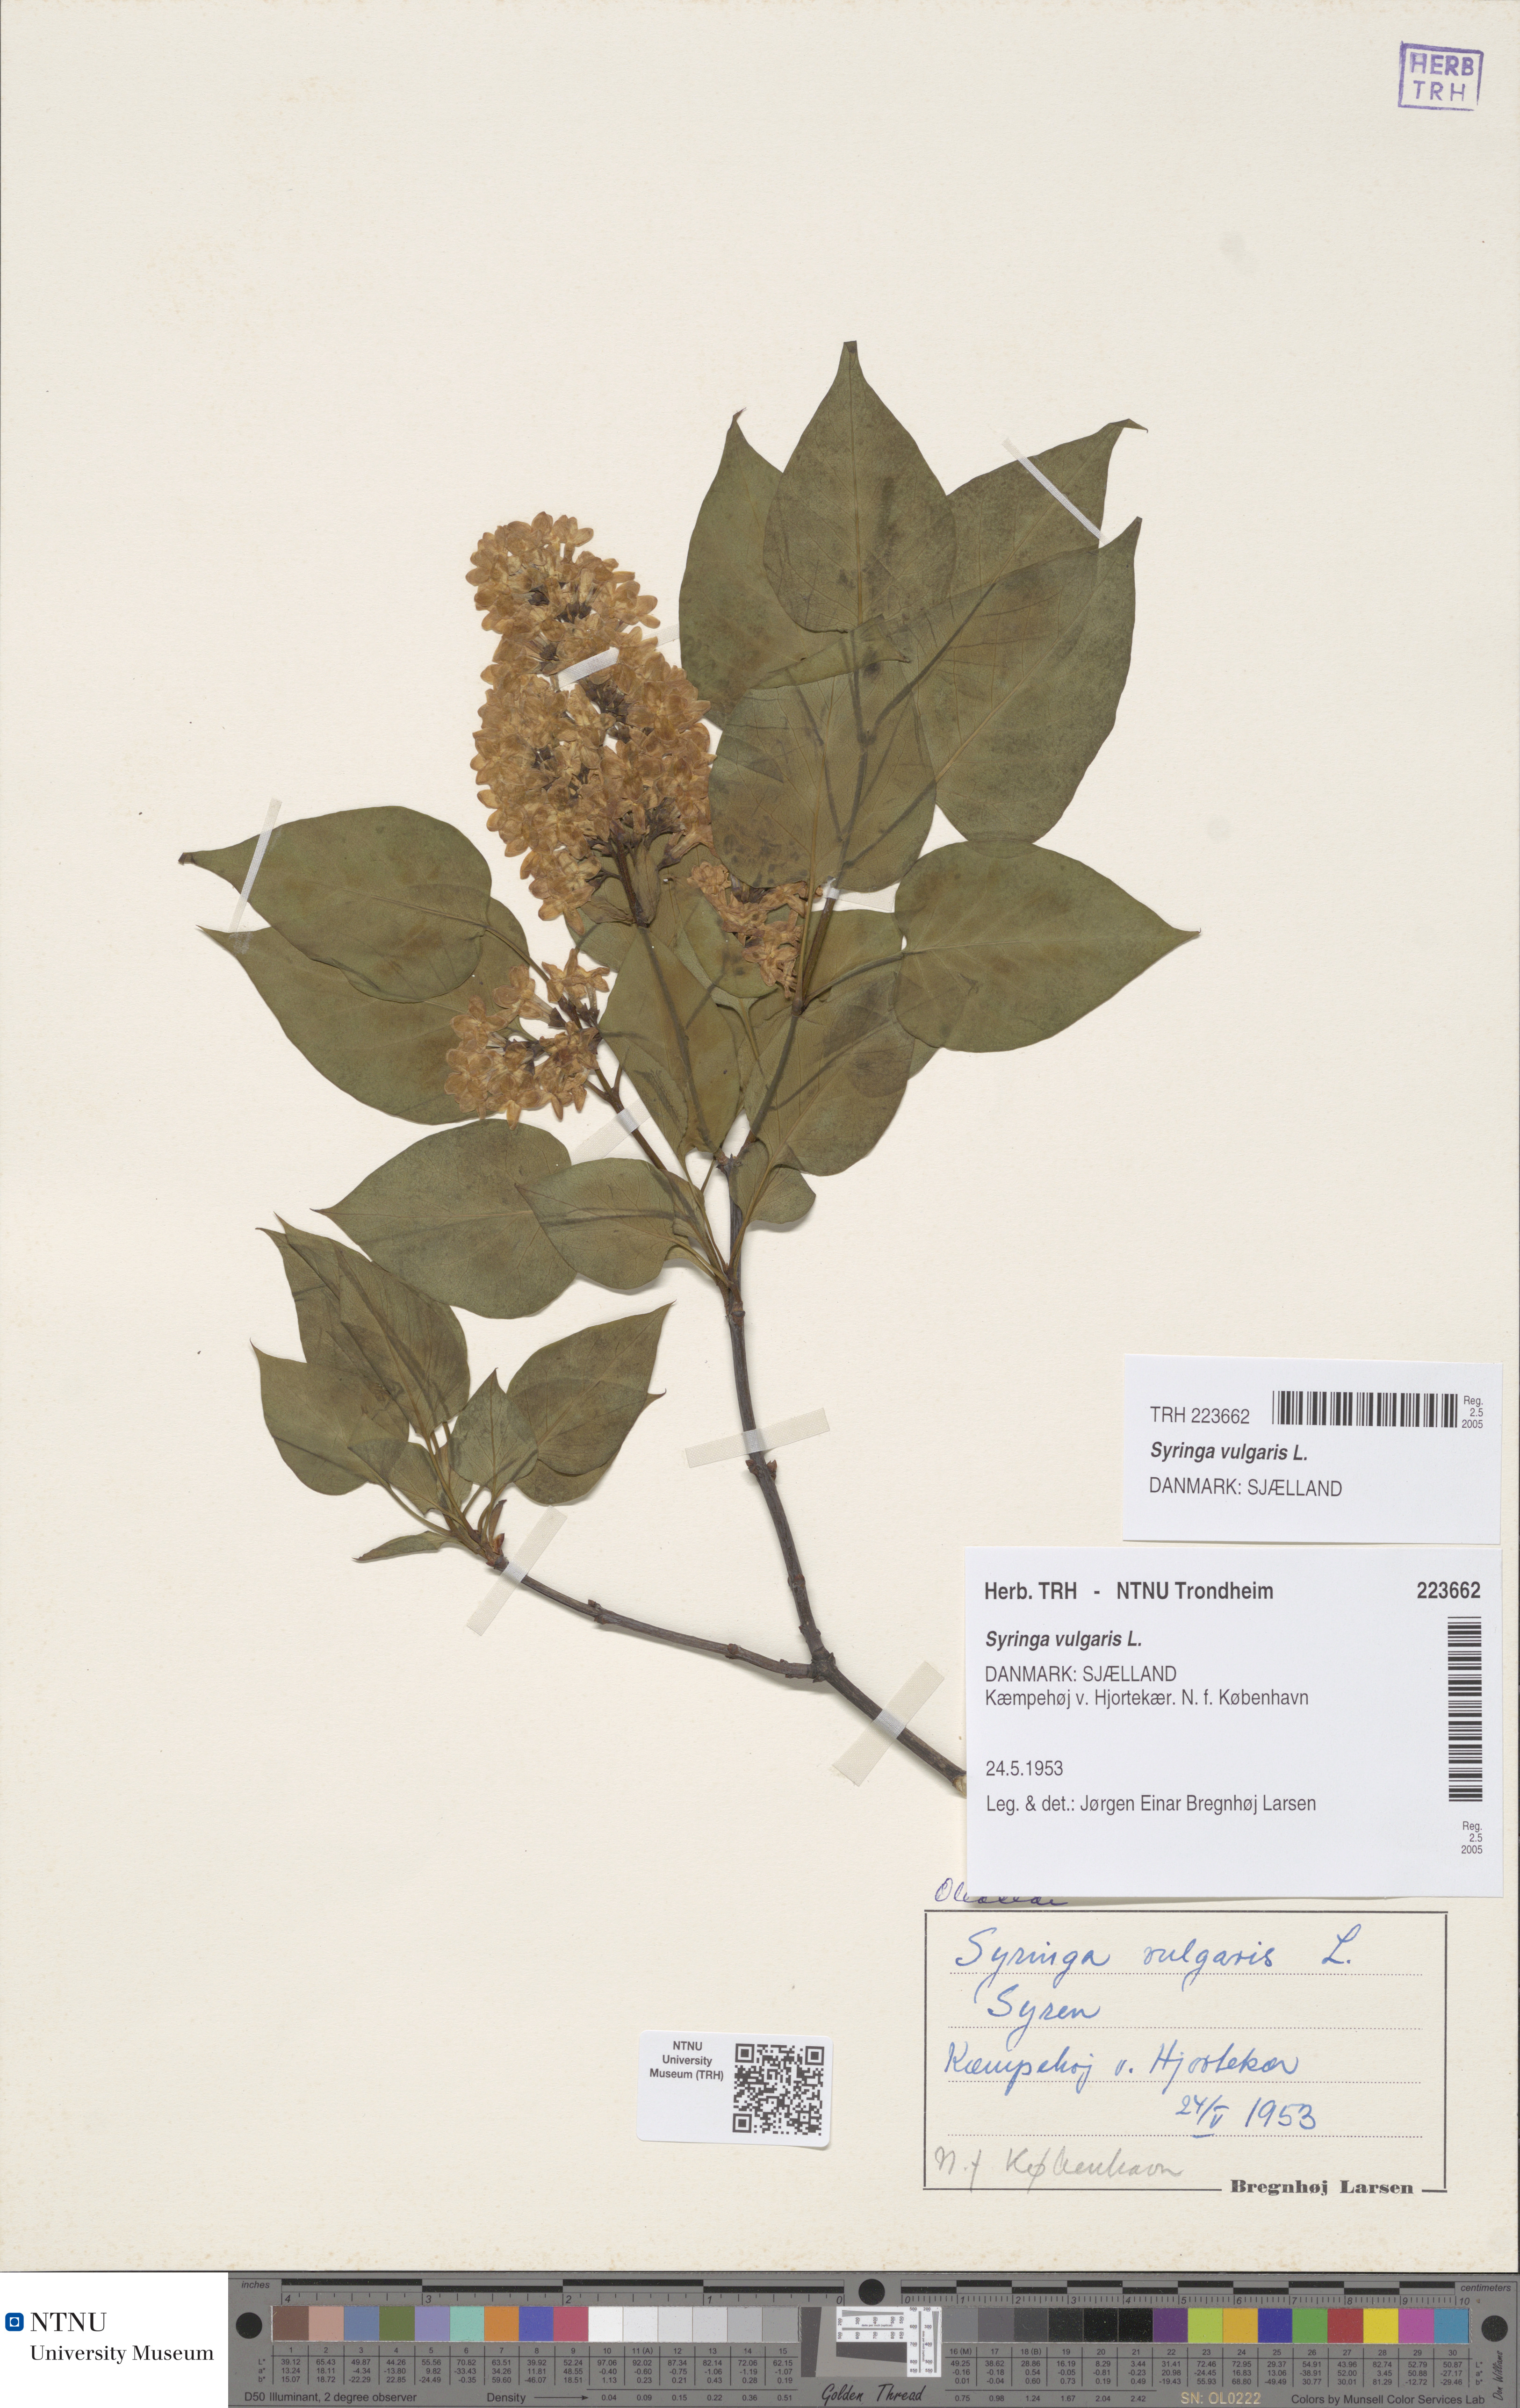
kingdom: Plantae
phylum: Tracheophyta
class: Magnoliopsida
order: Lamiales
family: Oleaceae
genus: Syringa
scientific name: Syringa vulgaris
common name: Common lilac
